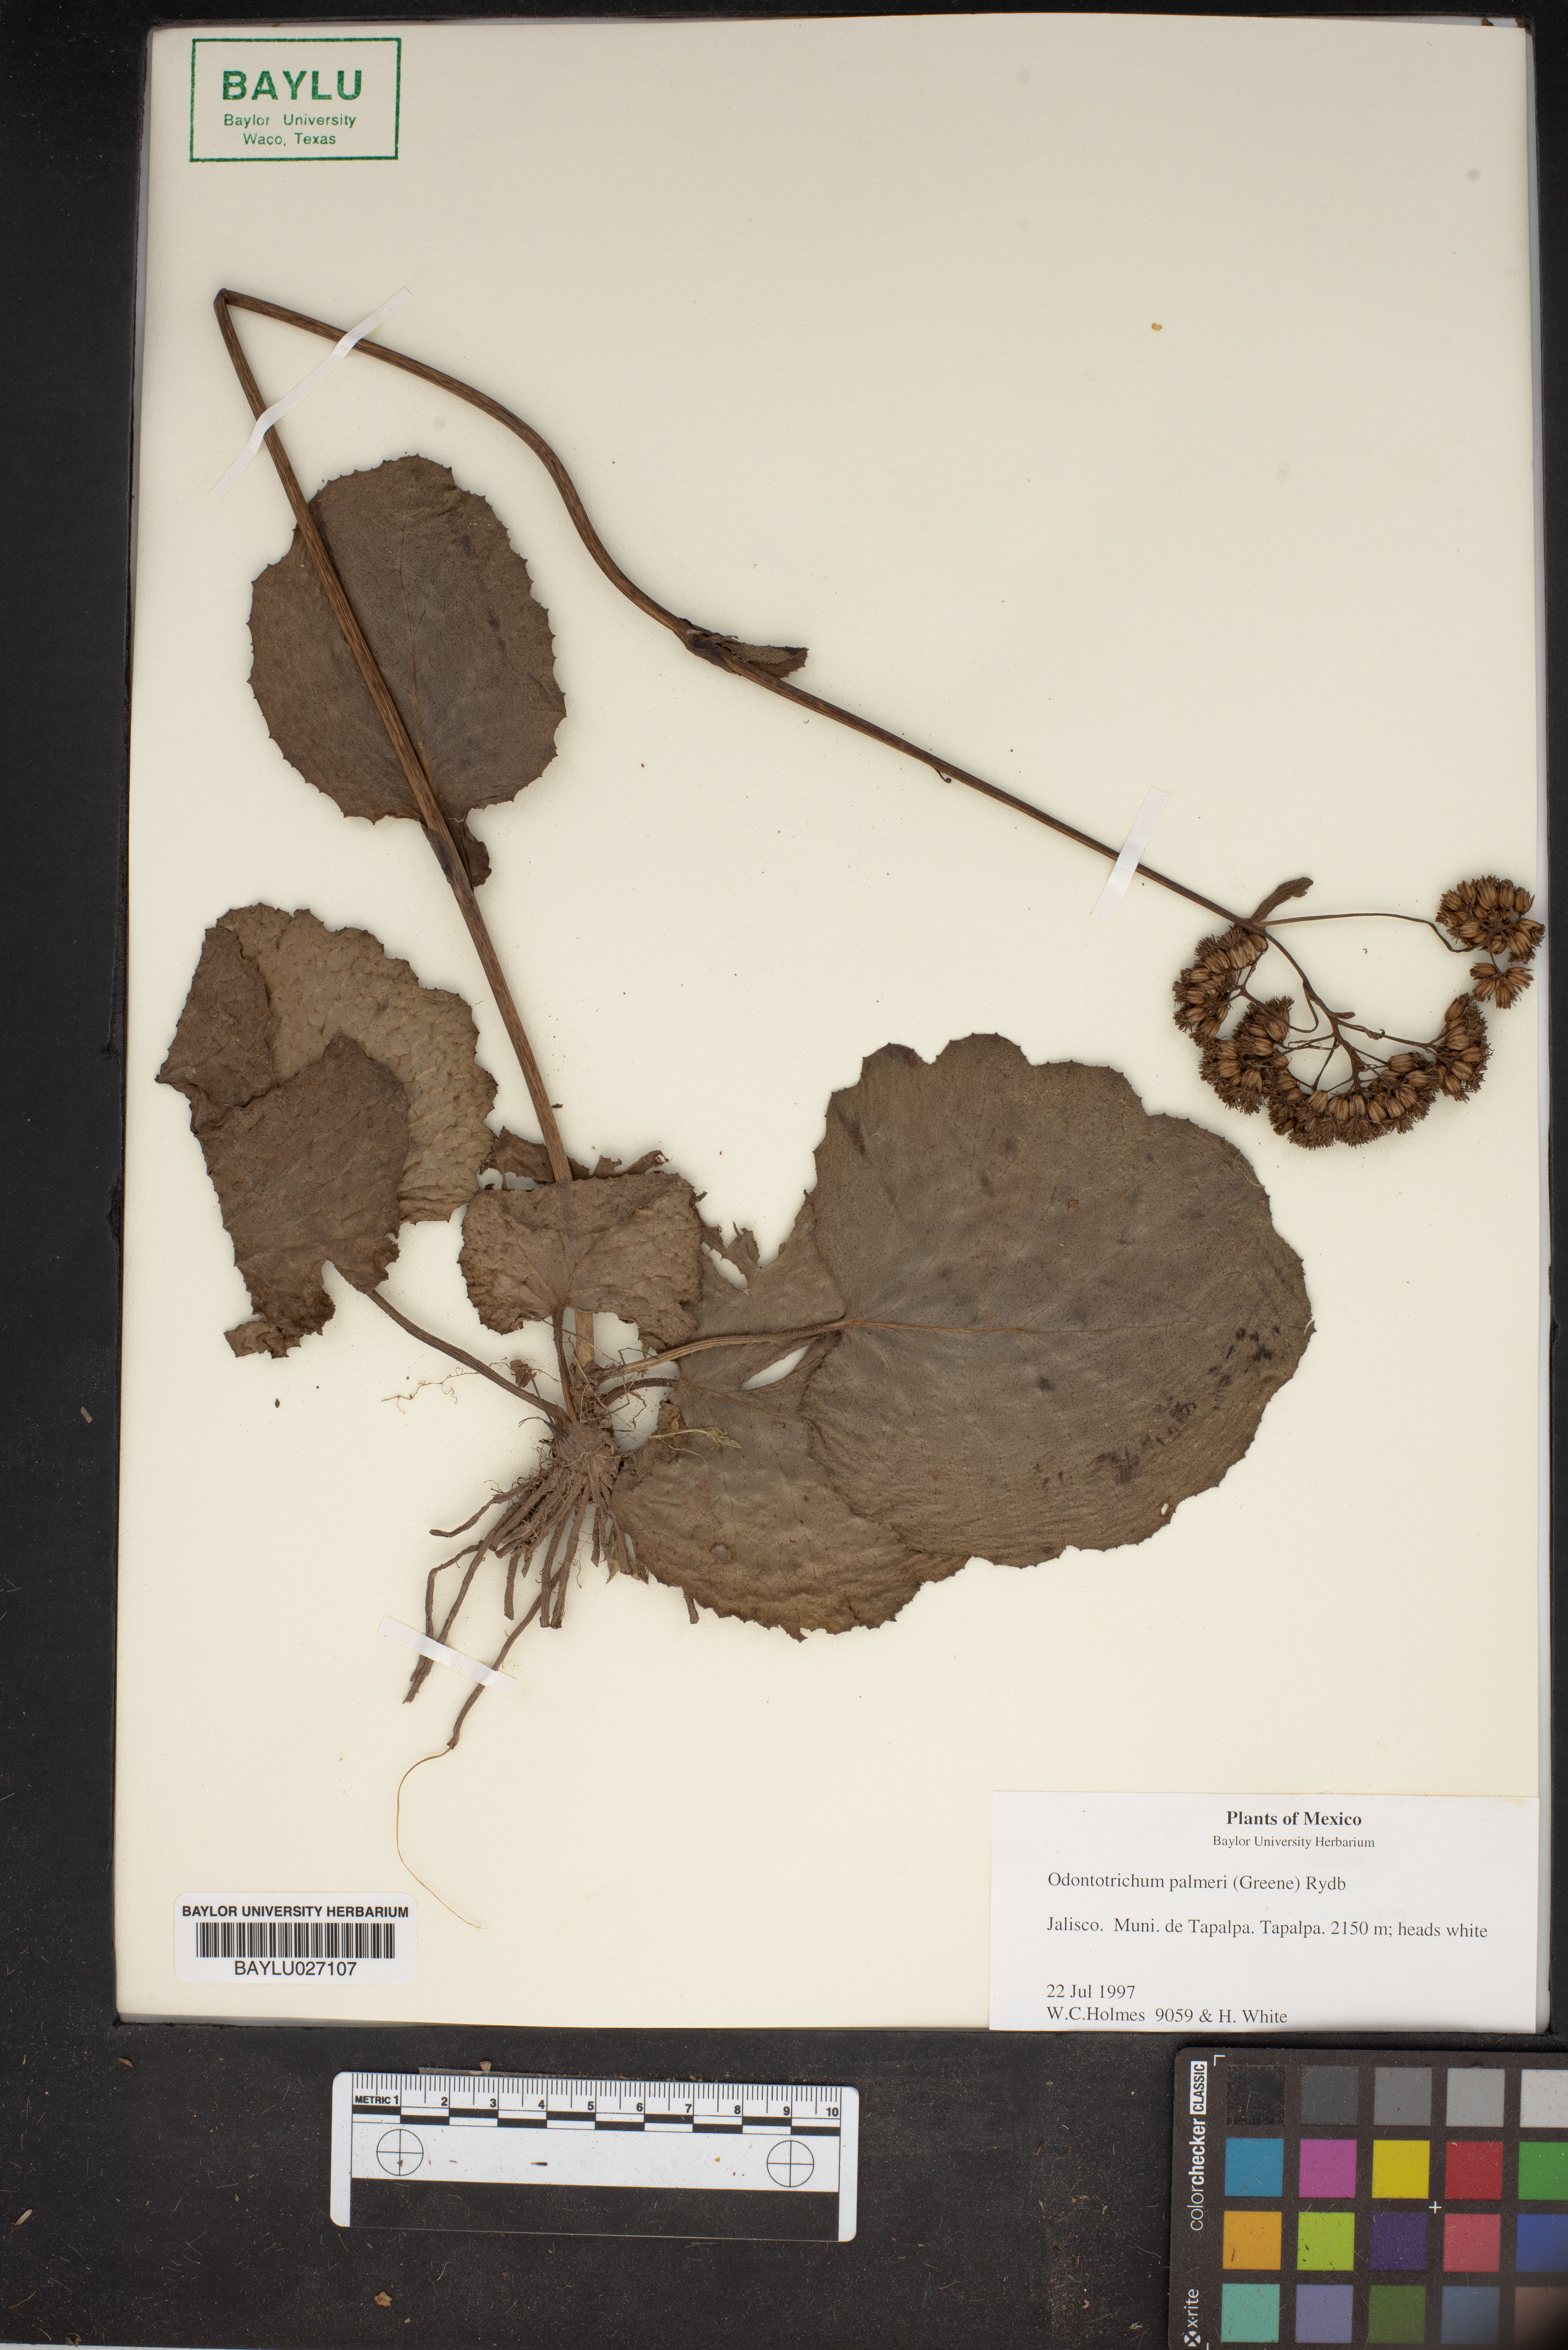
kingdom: Plantae
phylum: Tracheophyta
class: Magnoliopsida
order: Asterales
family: Asteraceae
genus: Psacalium
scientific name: Psacalium palmeri
